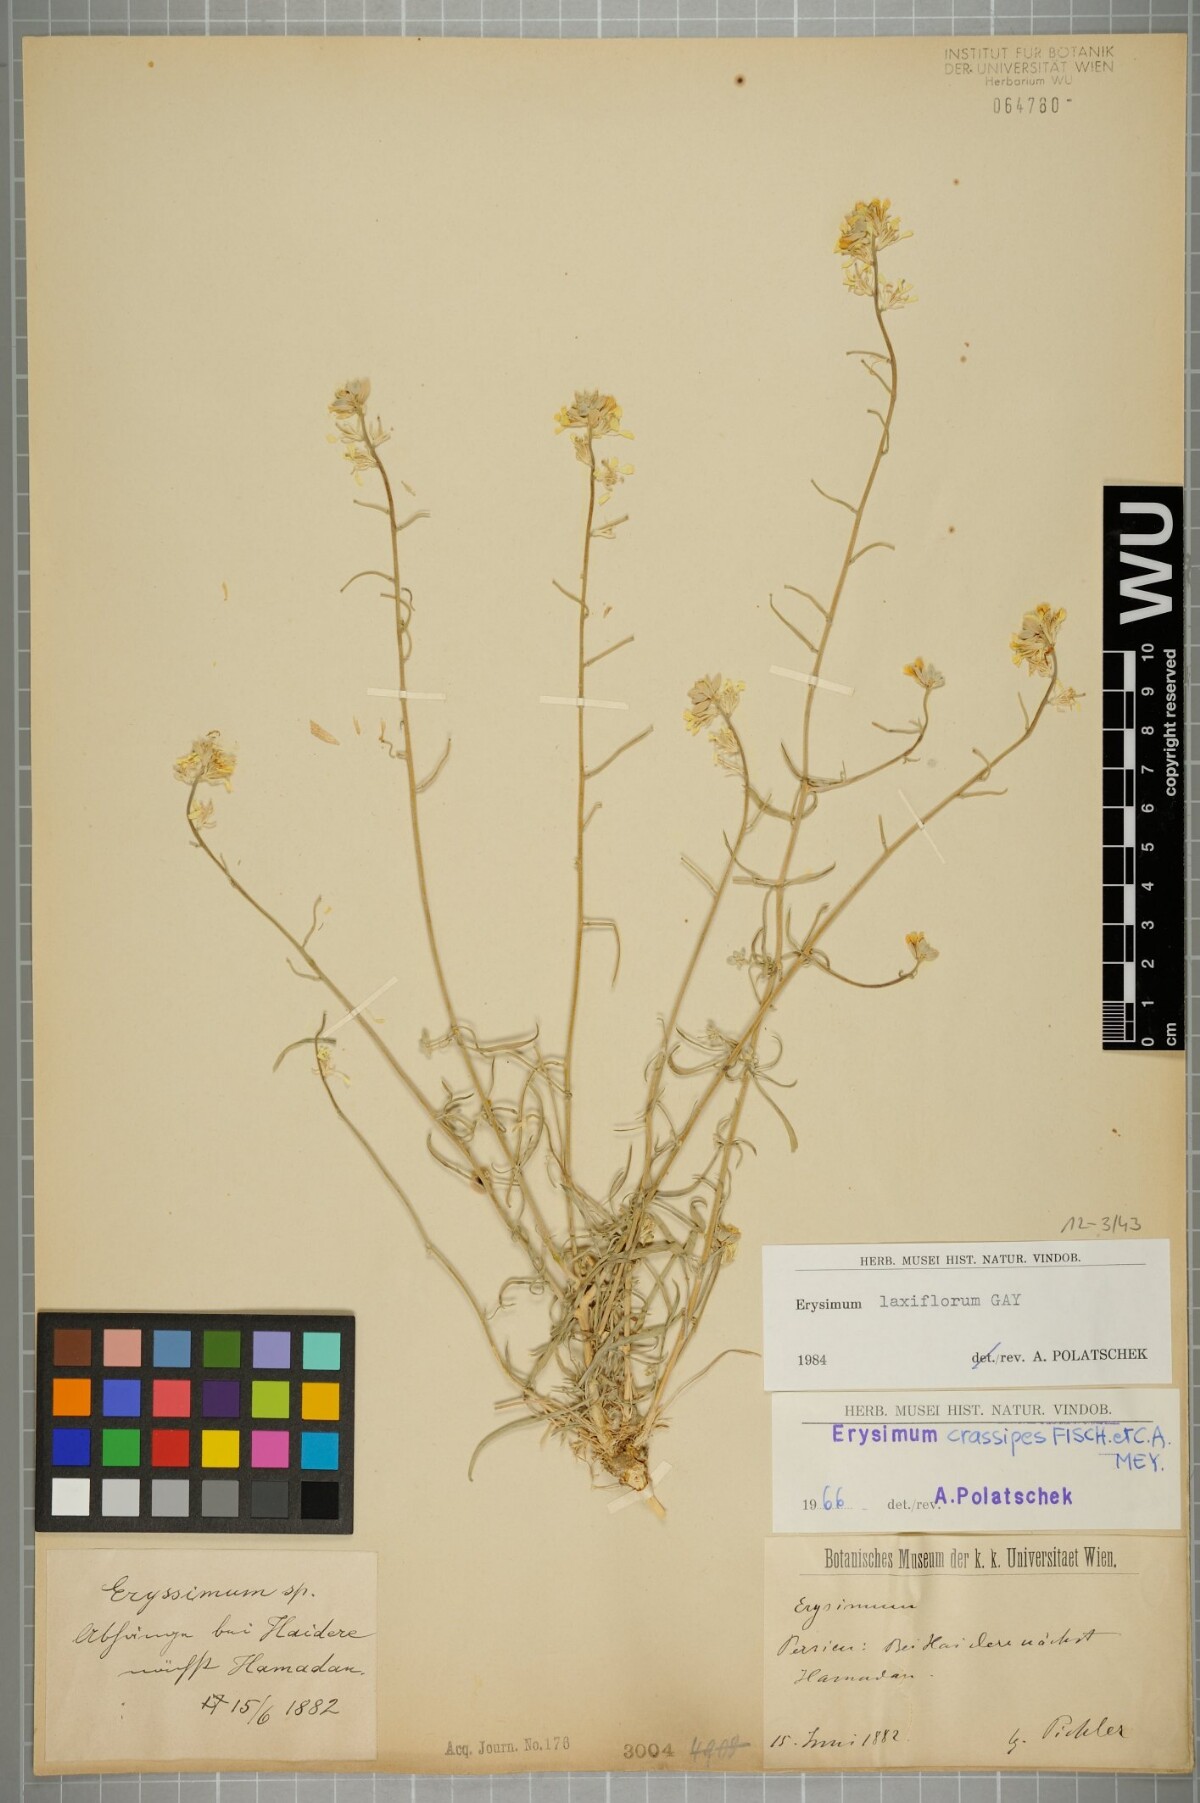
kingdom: Plantae
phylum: Tracheophyta
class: Magnoliopsida
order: Brassicales
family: Brassicaceae
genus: Erysimum
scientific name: Erysimum laxiflorum
